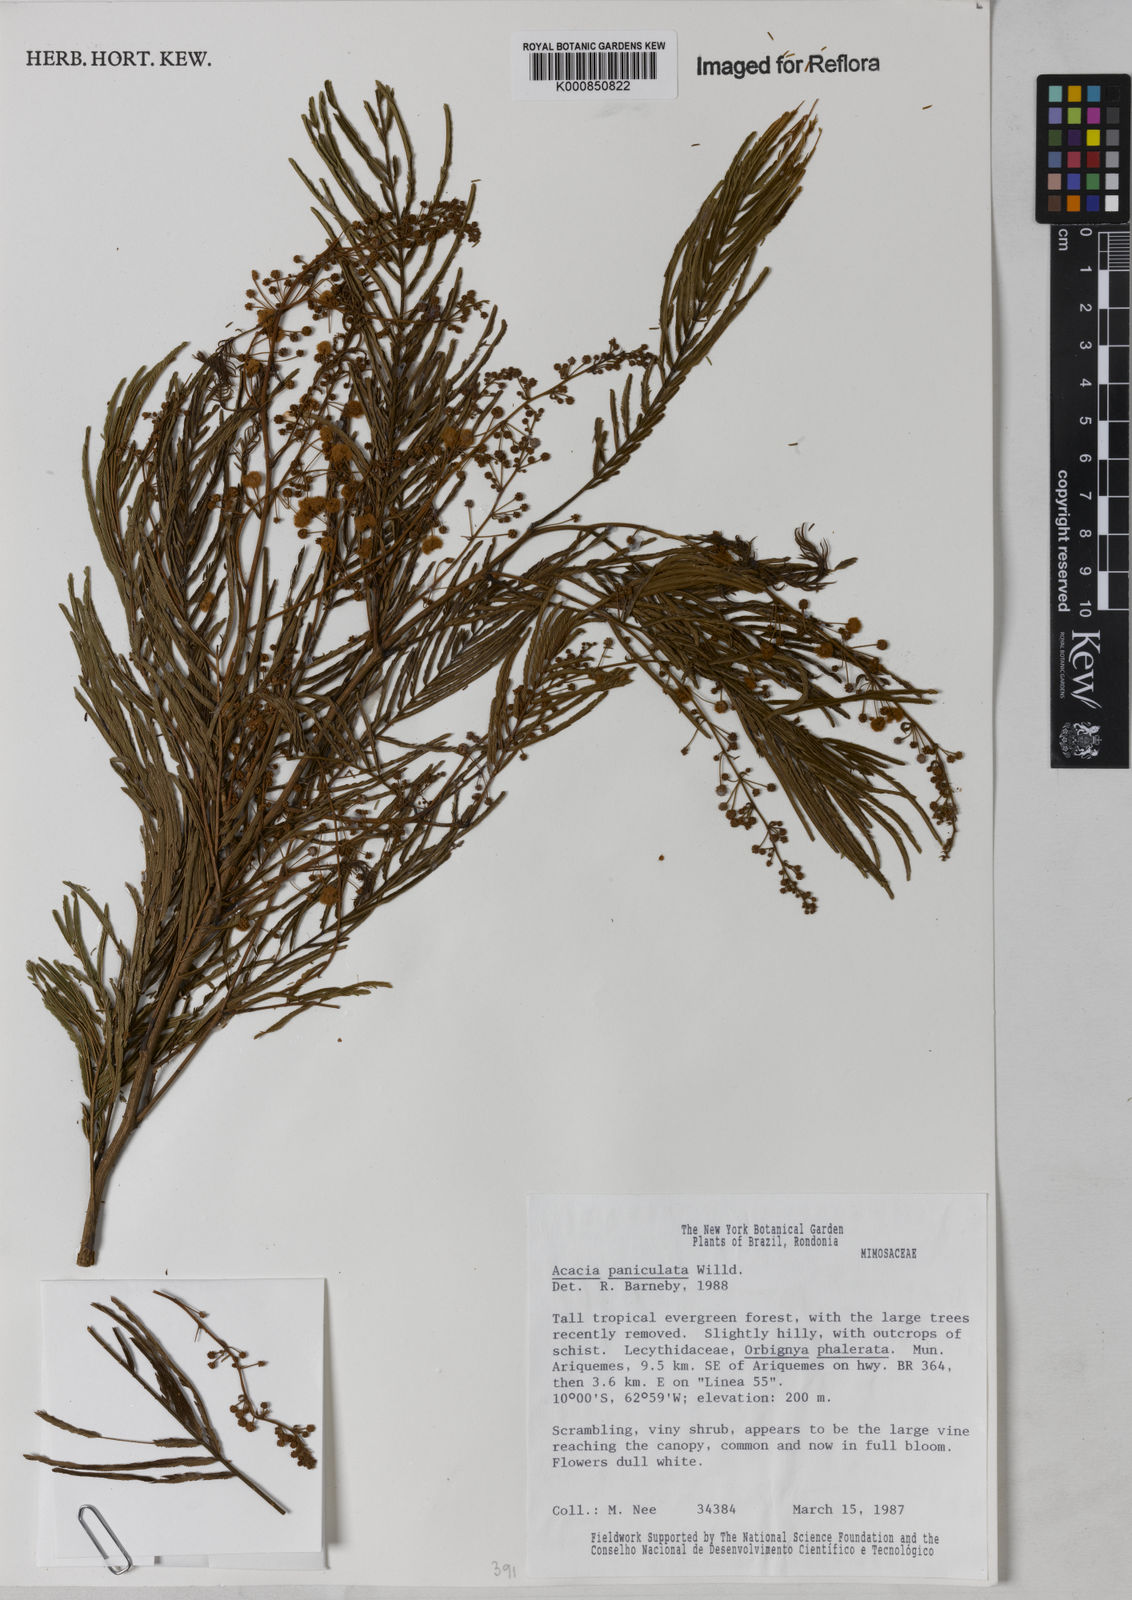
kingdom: Plantae
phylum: Tracheophyta
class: Magnoliopsida
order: Fabales
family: Fabaceae
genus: Senegalia
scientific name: Senegalia tenuifolia
